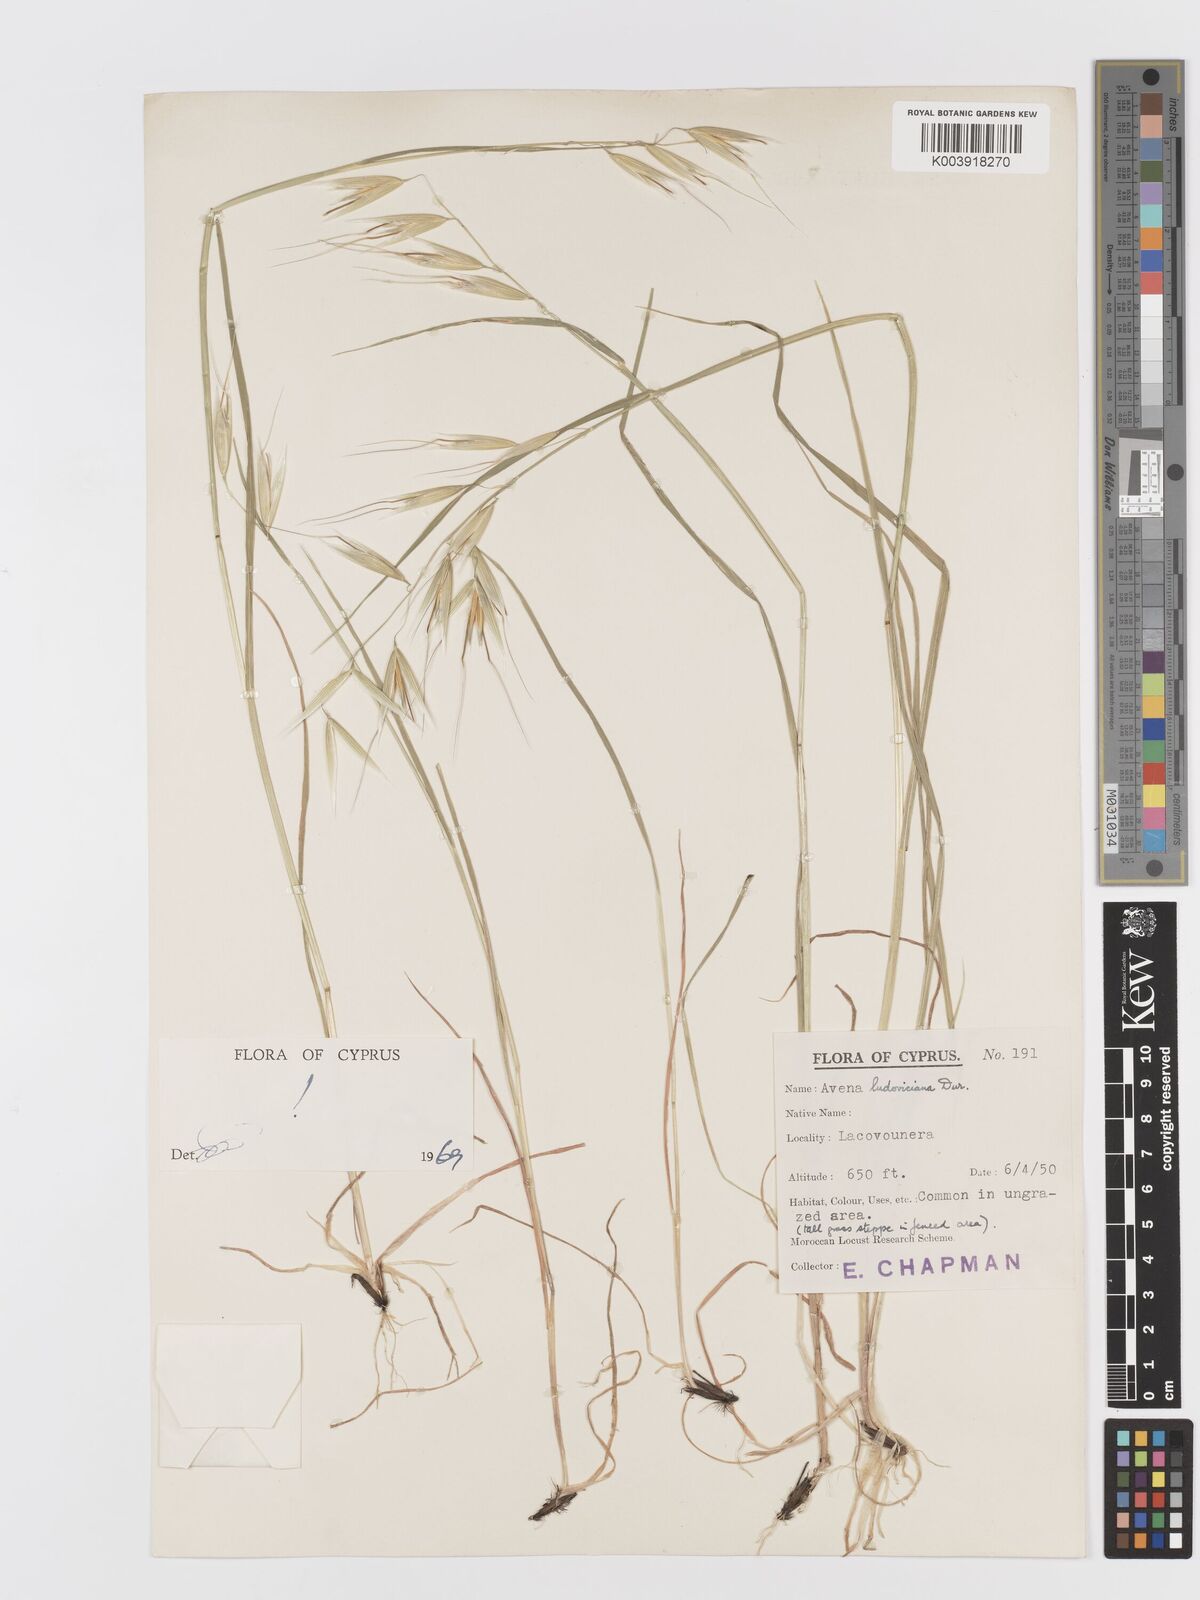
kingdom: Plantae
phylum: Tracheophyta
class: Liliopsida
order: Poales
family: Poaceae
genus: Avena
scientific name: Avena sterilis
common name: Animated oat
